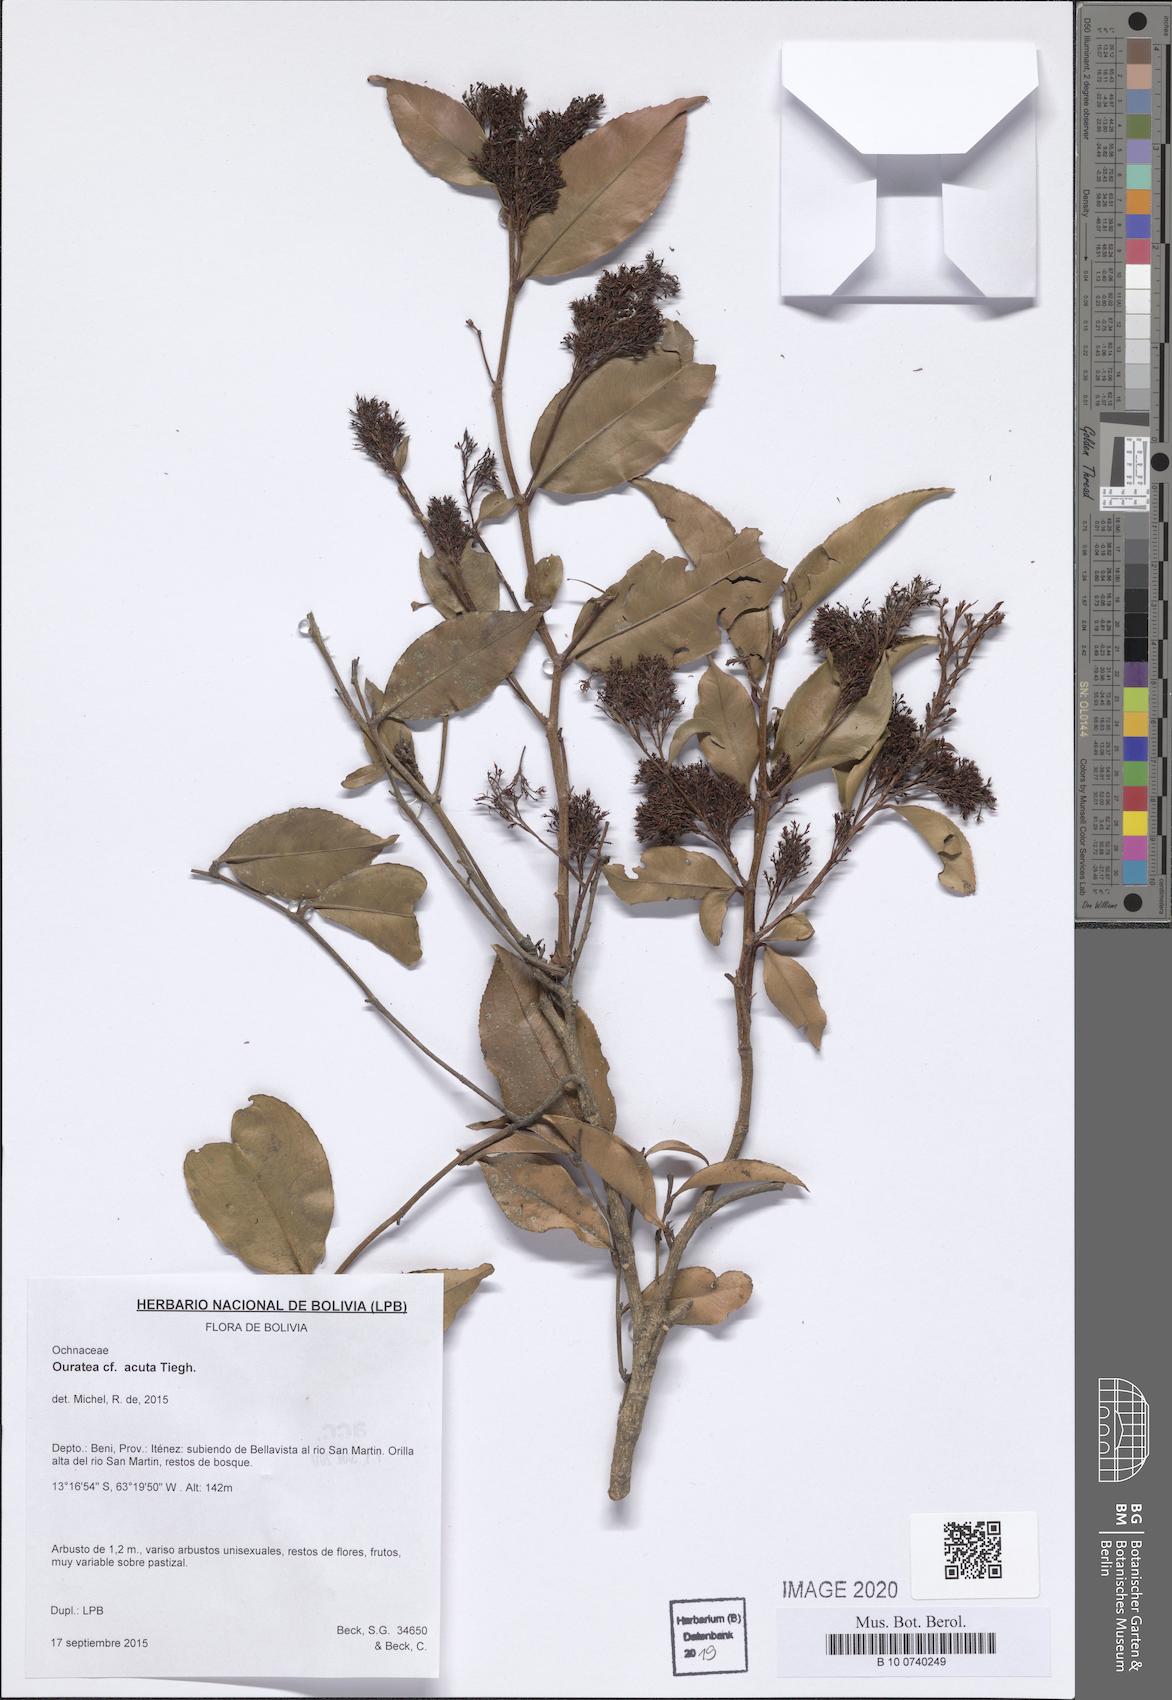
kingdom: Plantae
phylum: Tracheophyta
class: Magnoliopsida
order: Malpighiales
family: Ochnaceae
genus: Ouratea
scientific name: Ouratea acuta
